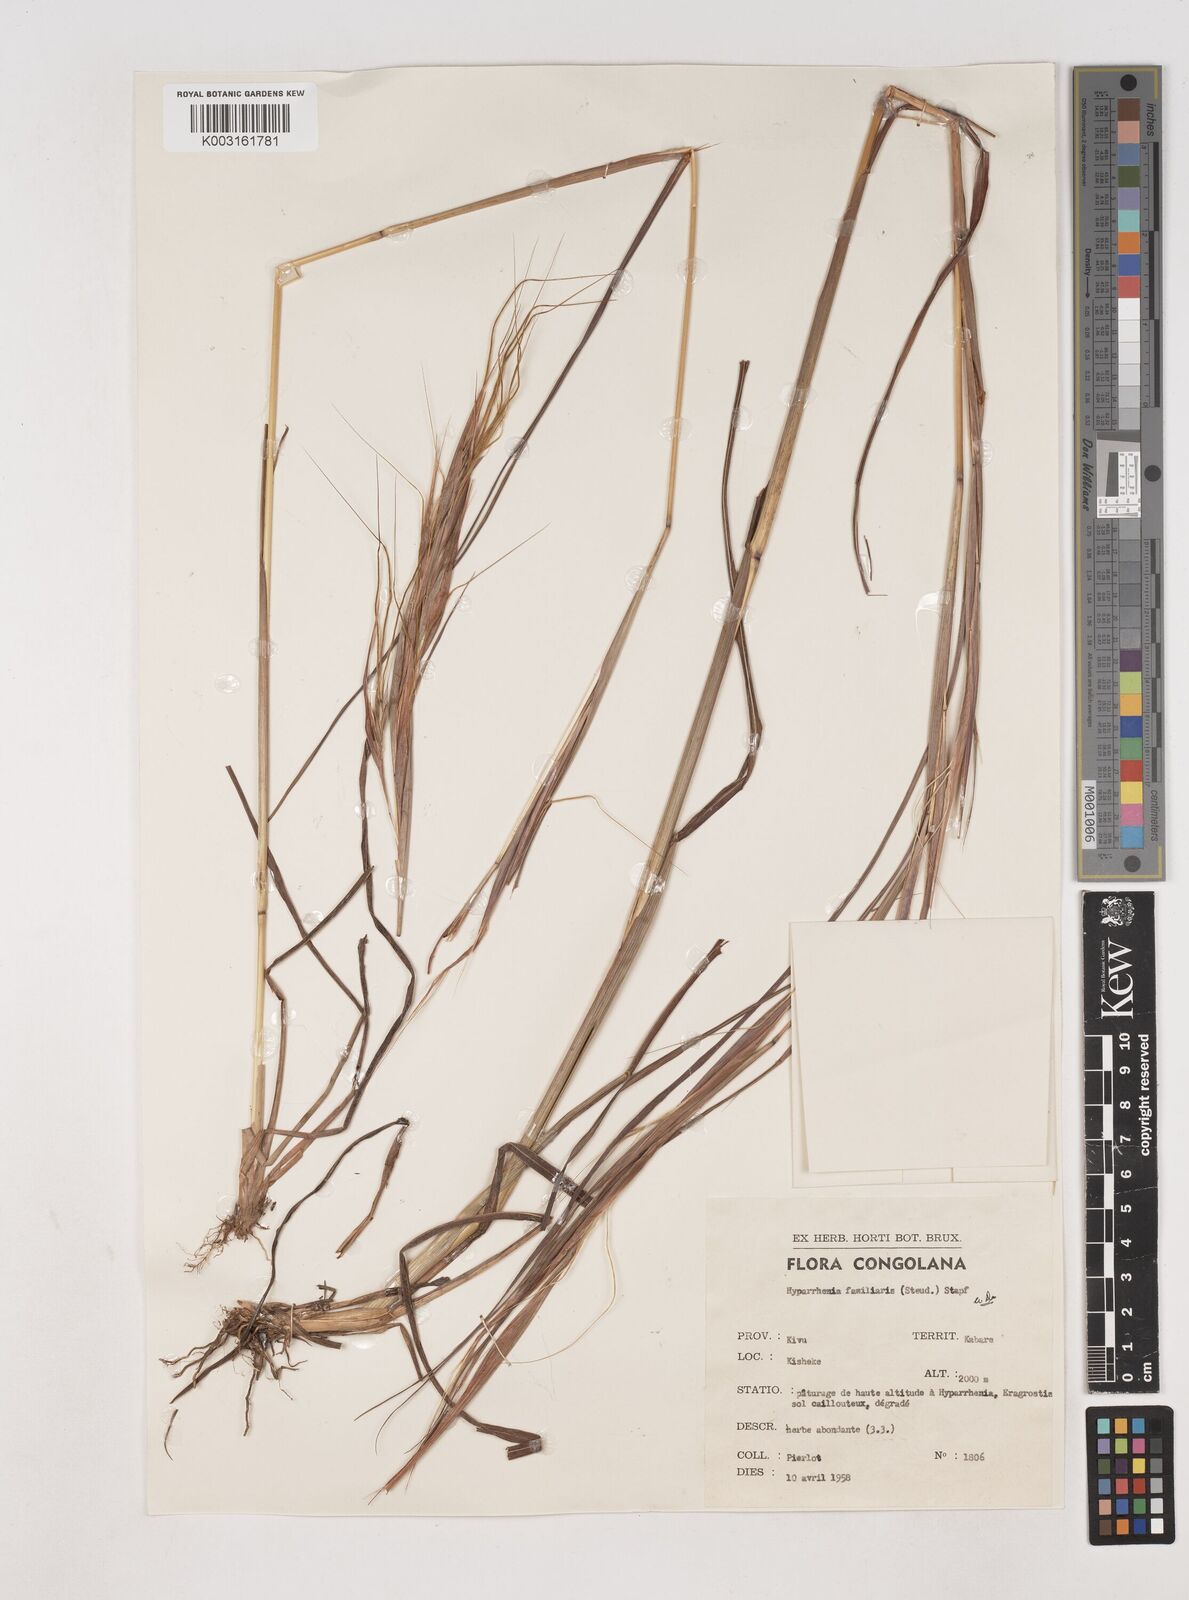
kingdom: Plantae
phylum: Tracheophyta
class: Liliopsida
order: Poales
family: Poaceae
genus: Hyparrhenia
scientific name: Hyparrhenia familiaris
